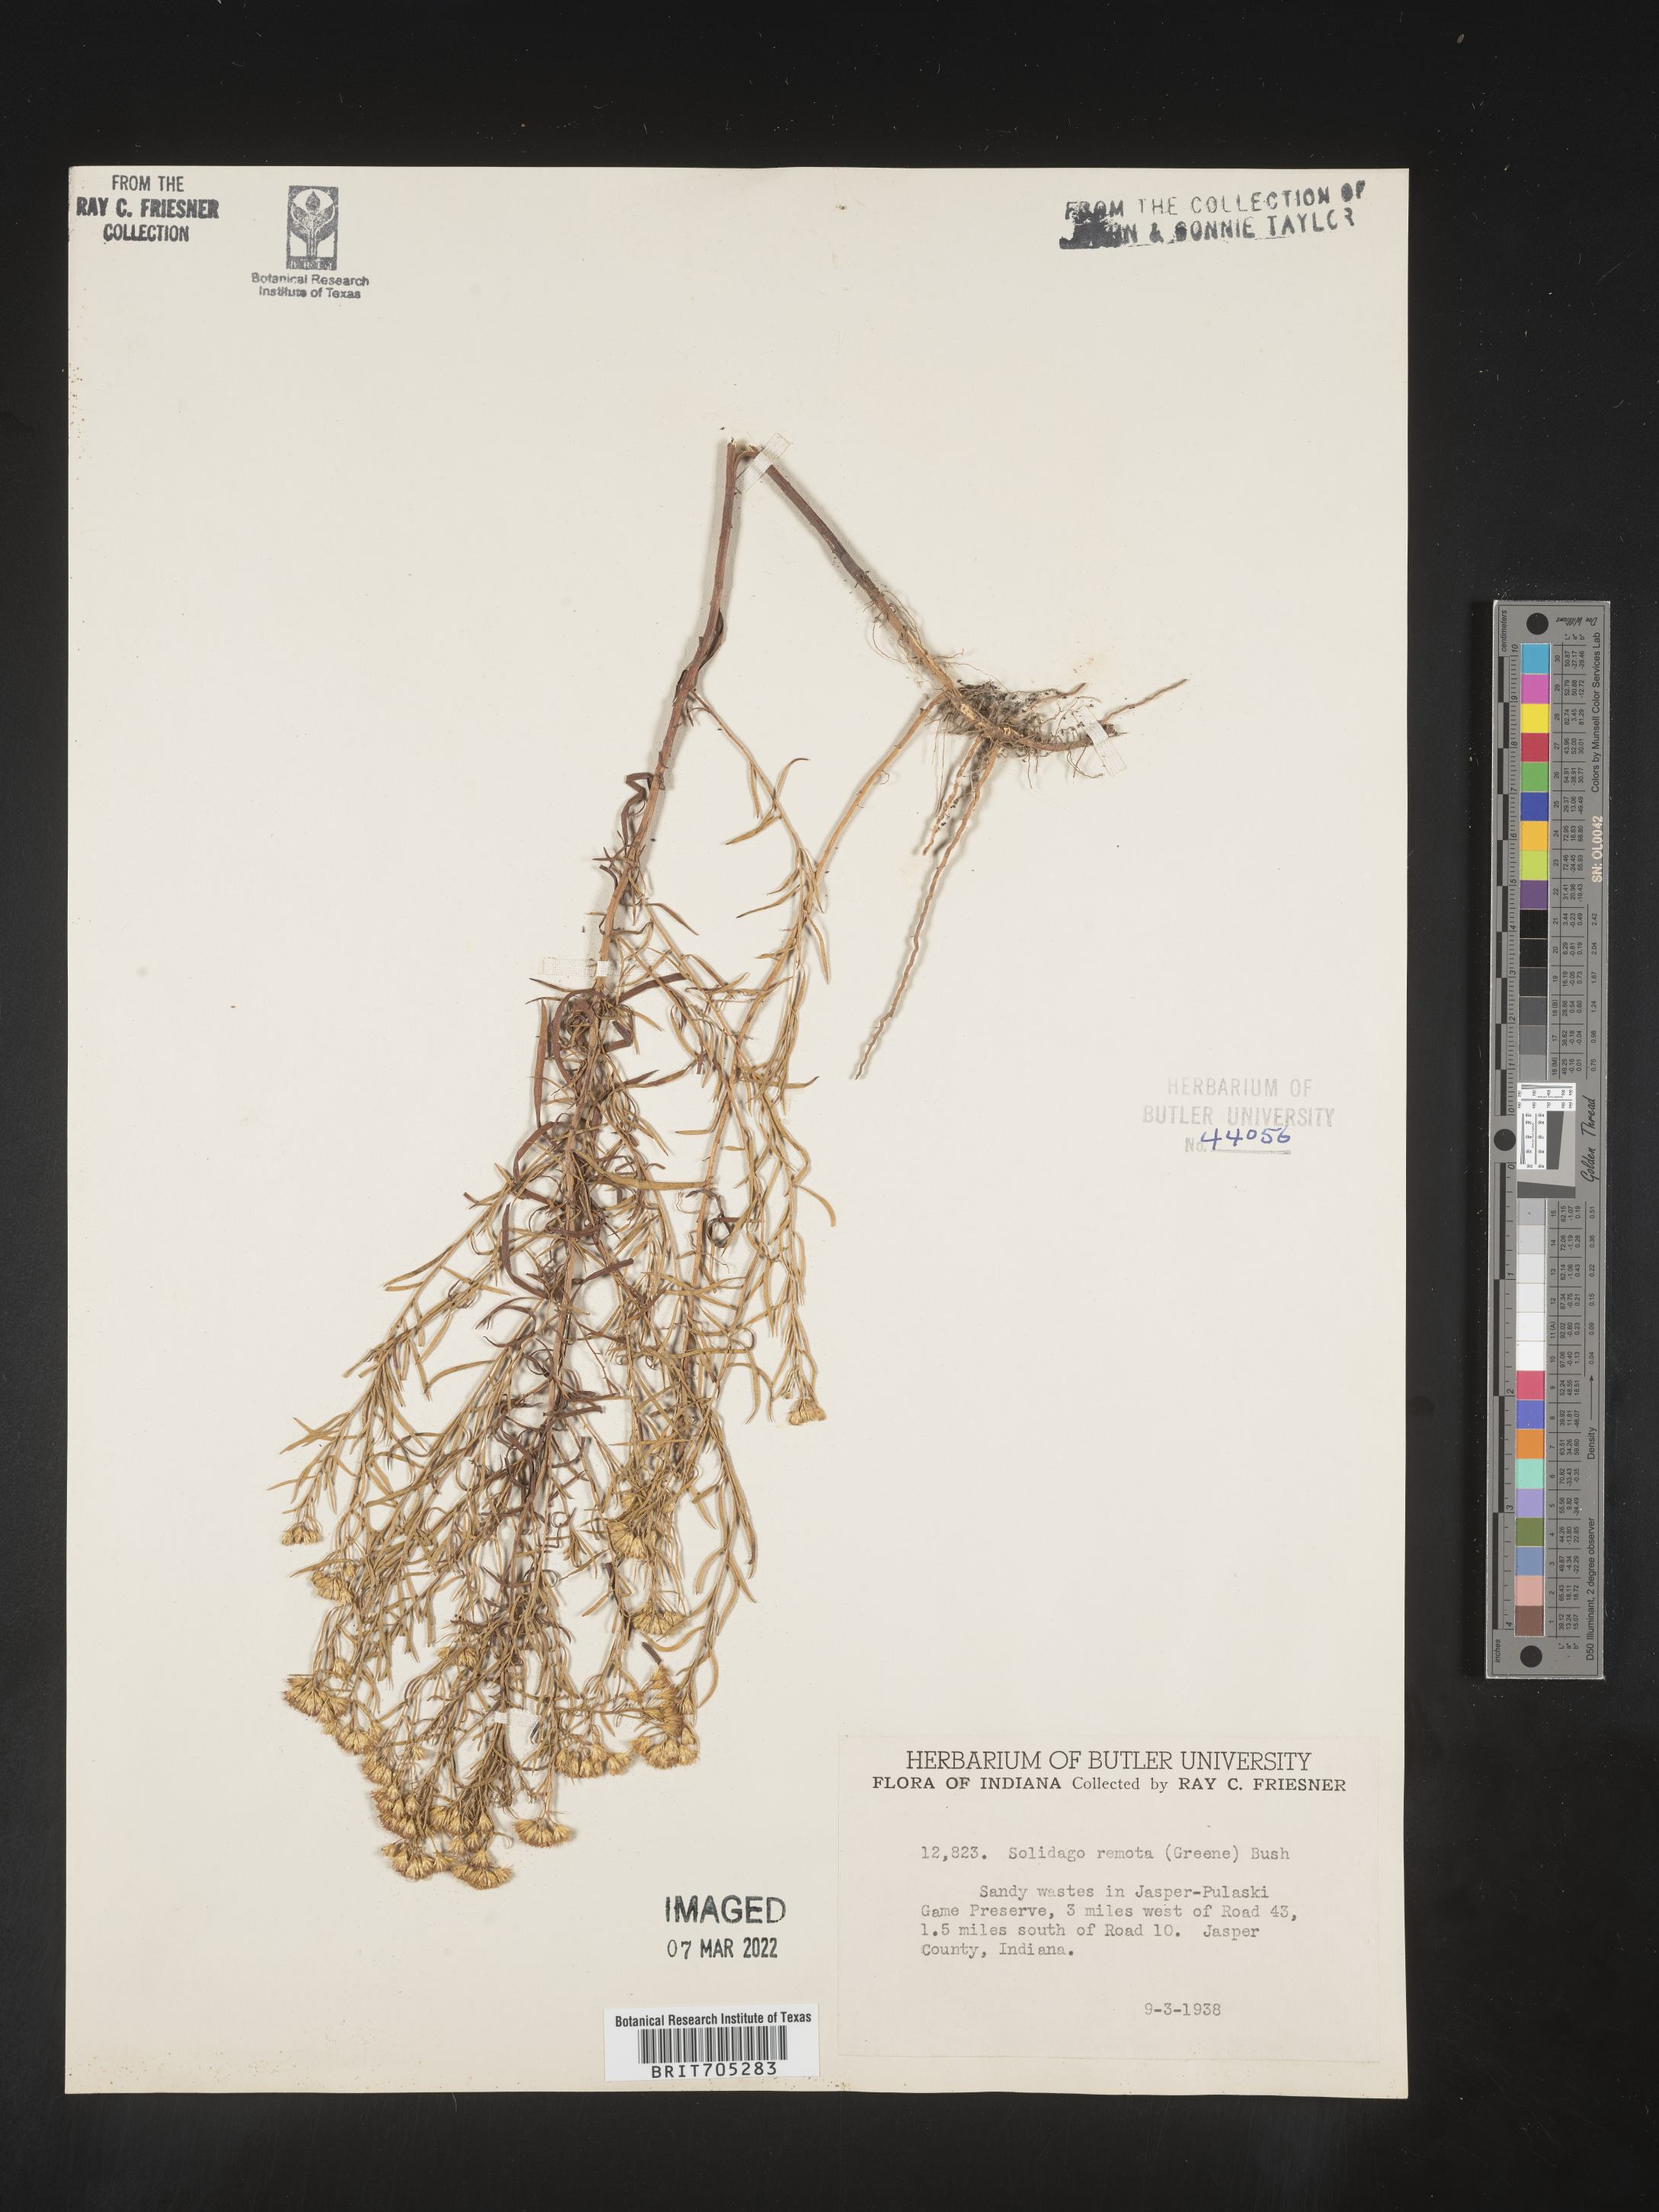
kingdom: Plantae
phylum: Tracheophyta
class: Magnoliopsida
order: Asterales
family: Asteraceae
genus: Euthamia
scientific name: Euthamia gymnospermoides
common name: Great plains goldentop
